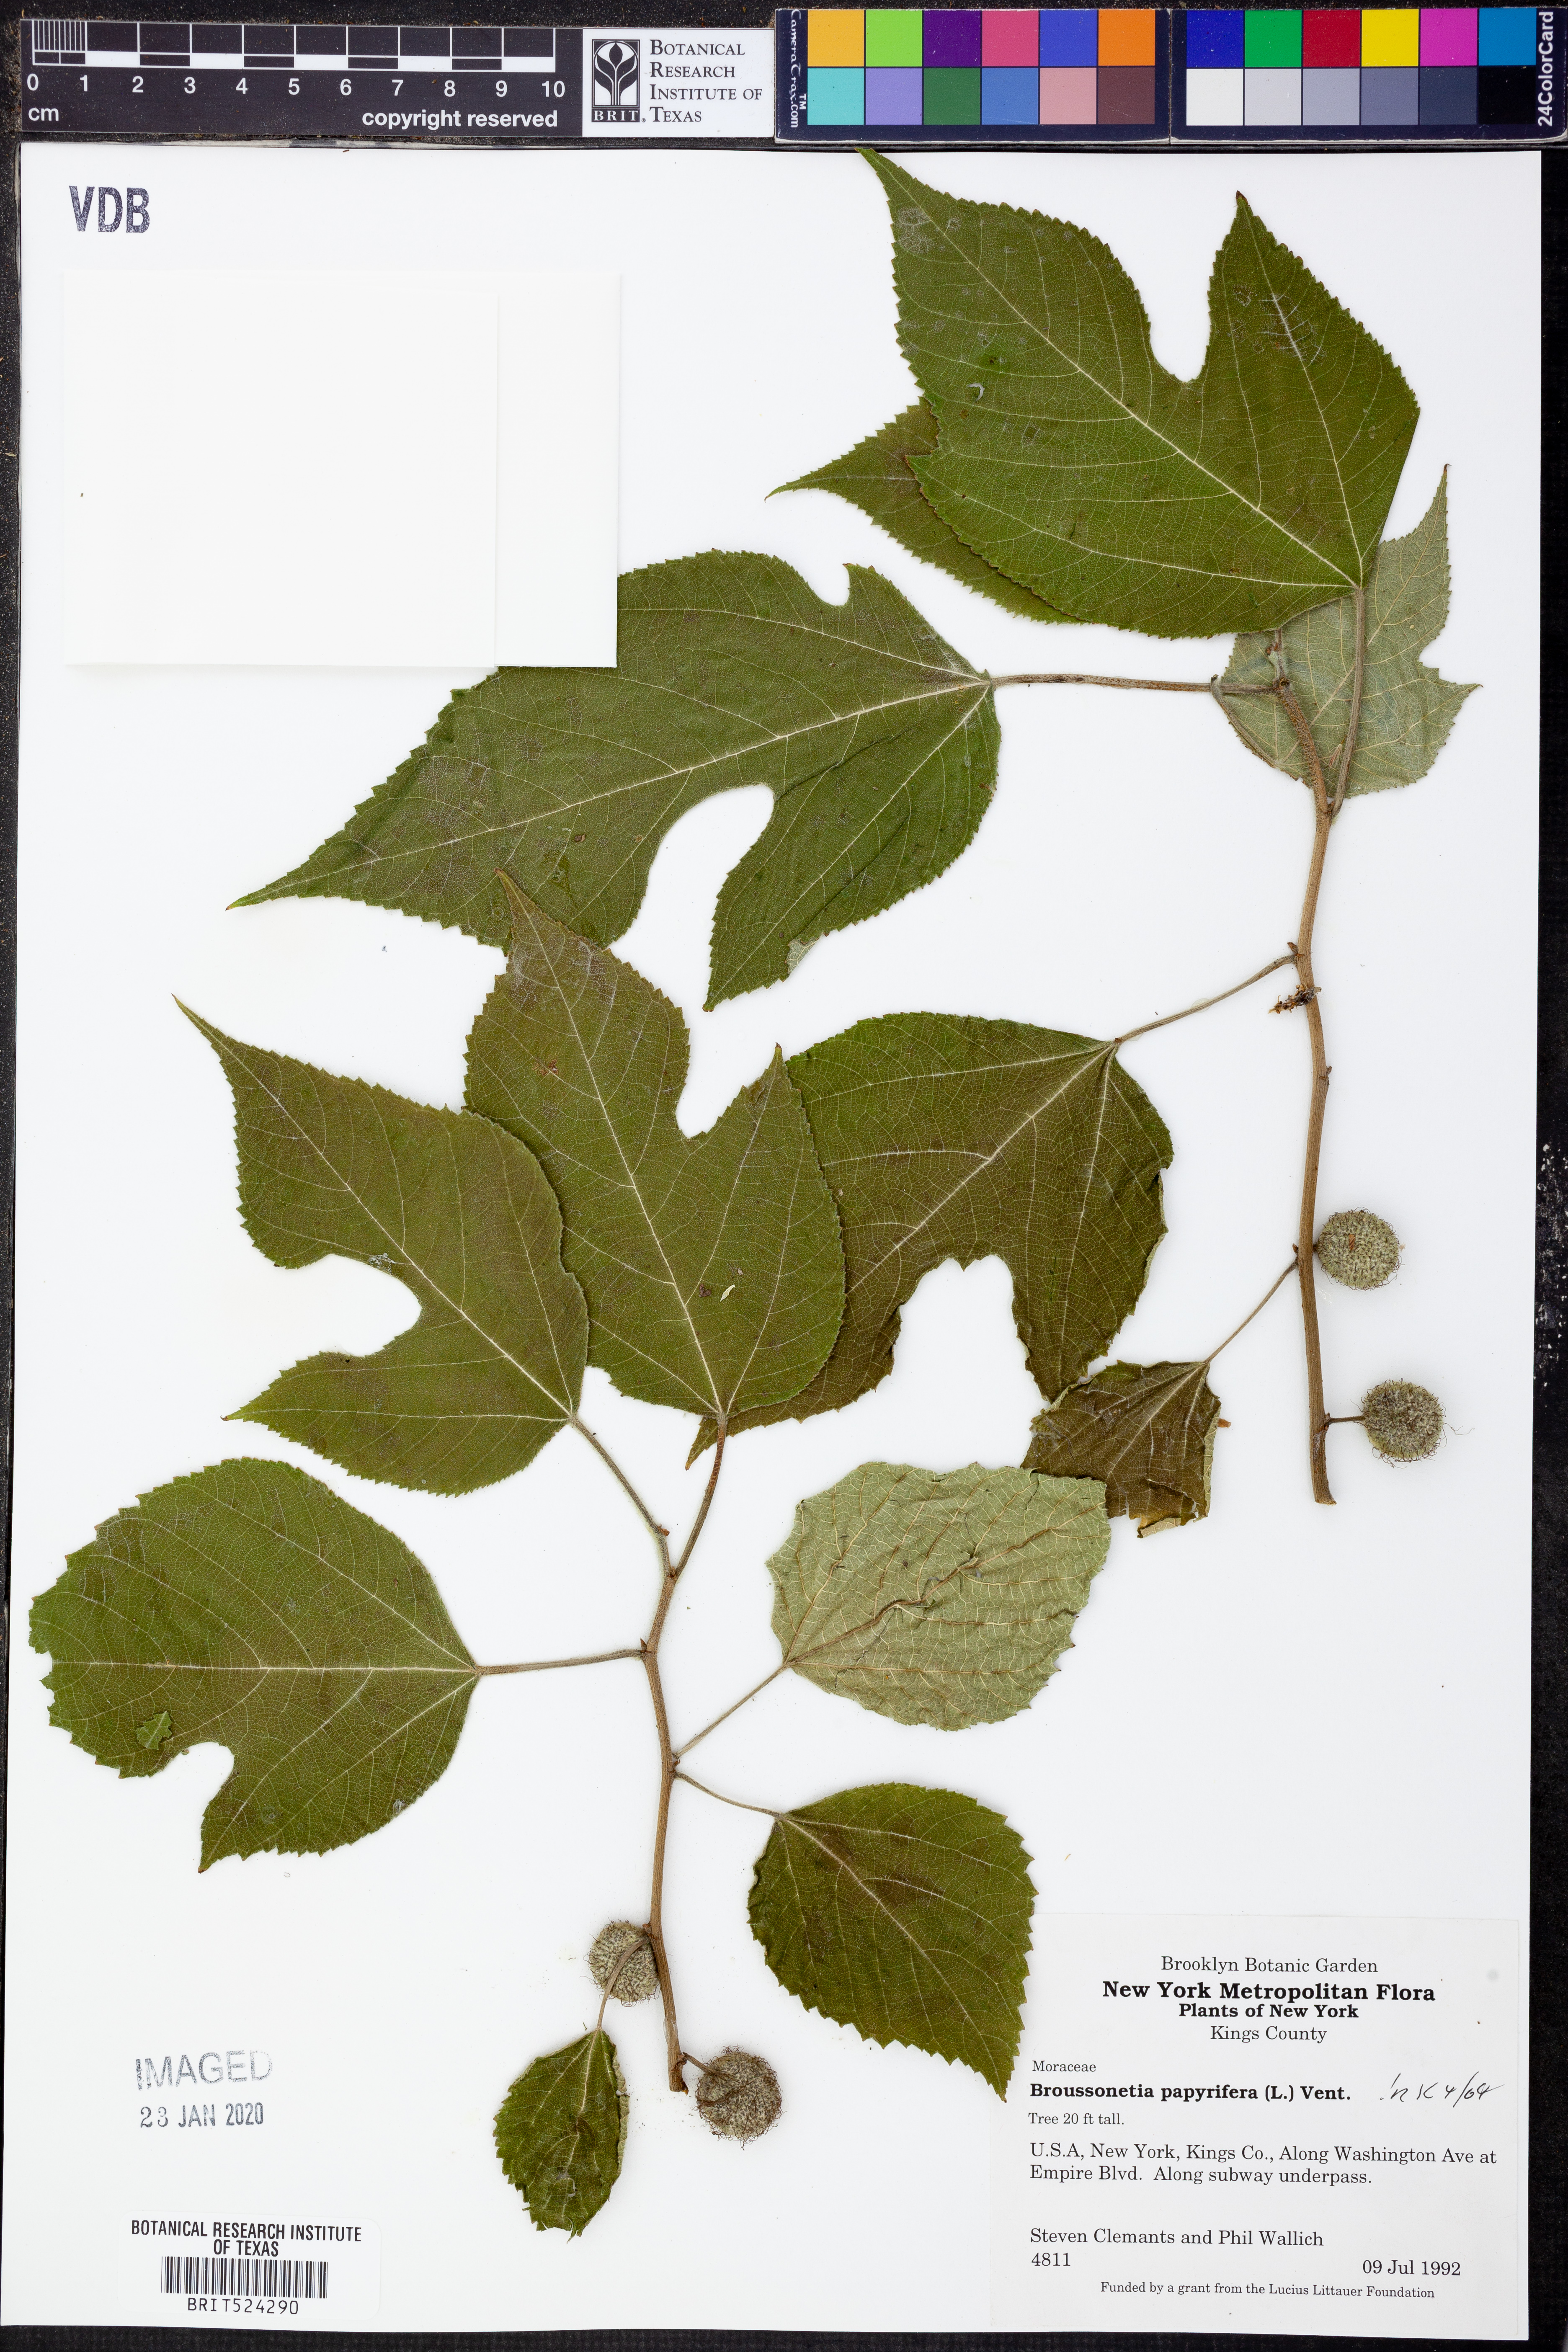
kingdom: Plantae
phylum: Tracheophyta
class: Magnoliopsida
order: Rosales
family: Moraceae
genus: Broussonetia
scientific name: Broussonetia papyrifera
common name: Paper mulberry
